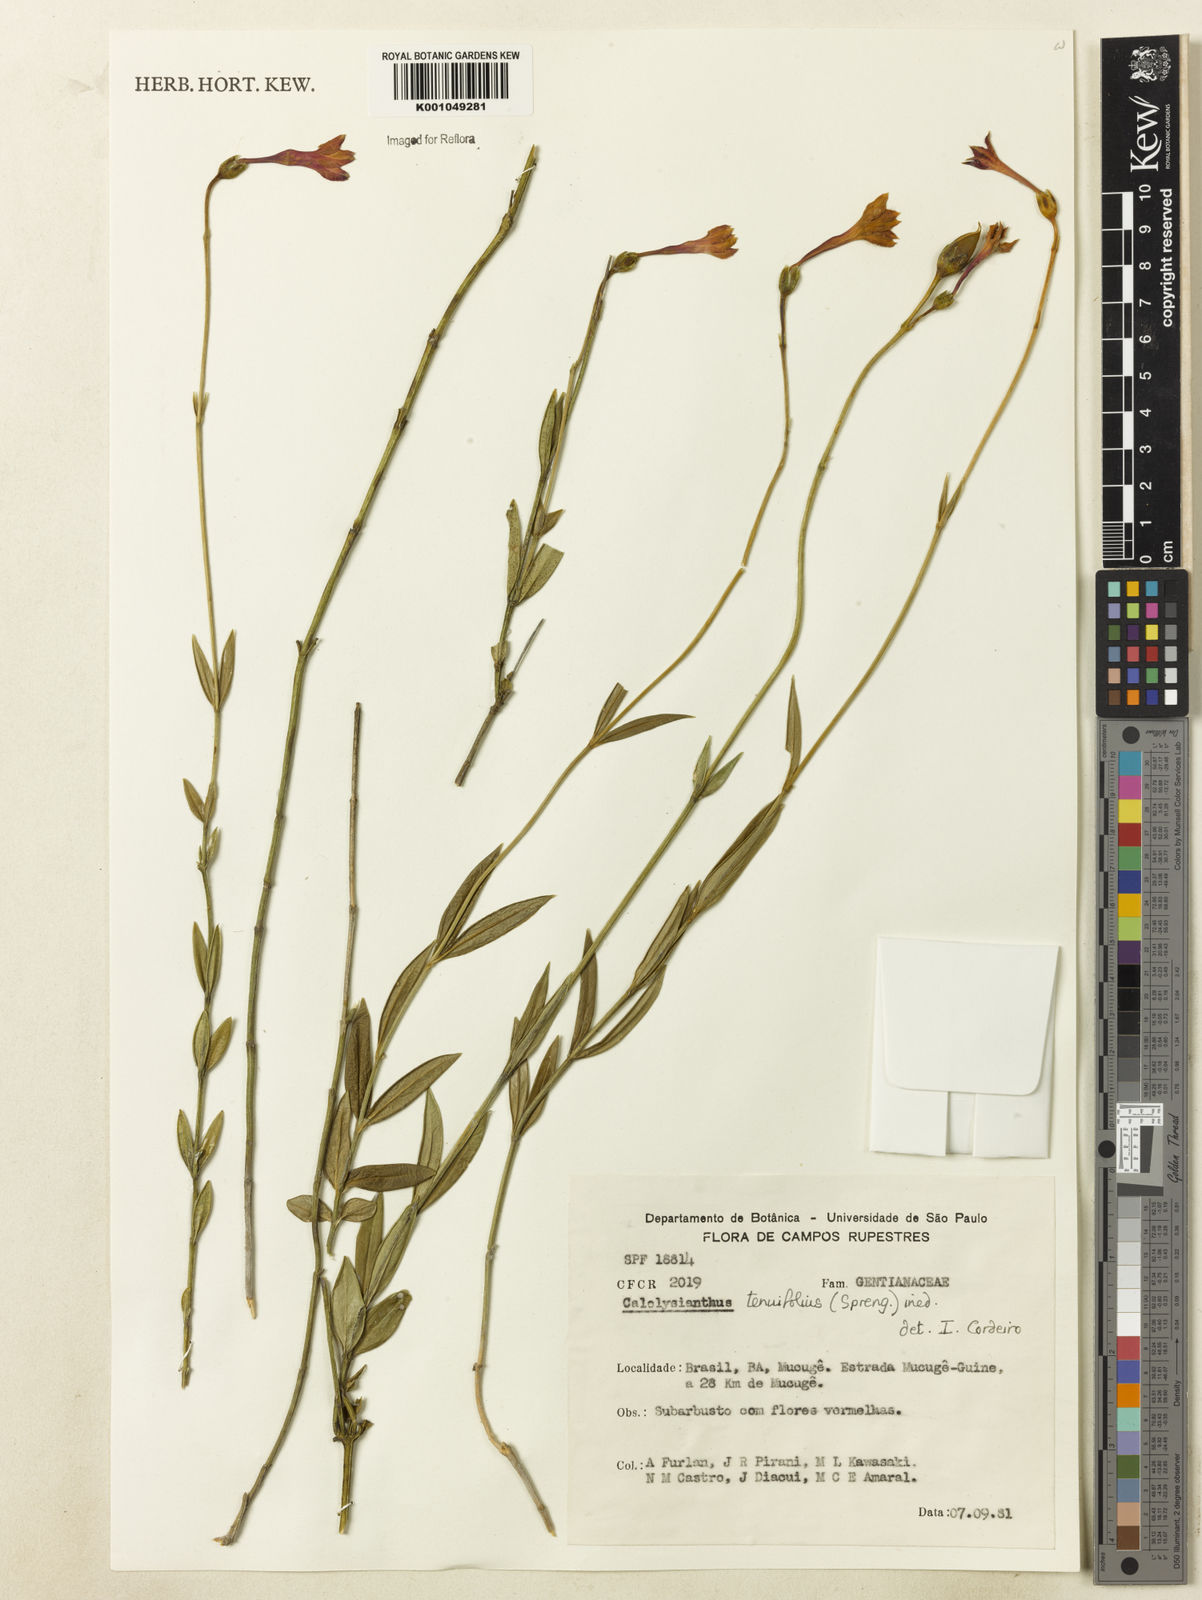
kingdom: Plantae
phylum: Tracheophyta
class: Magnoliopsida
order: Gentianales
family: Gentianaceae
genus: Calolisianthus
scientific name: Calolisianthus
